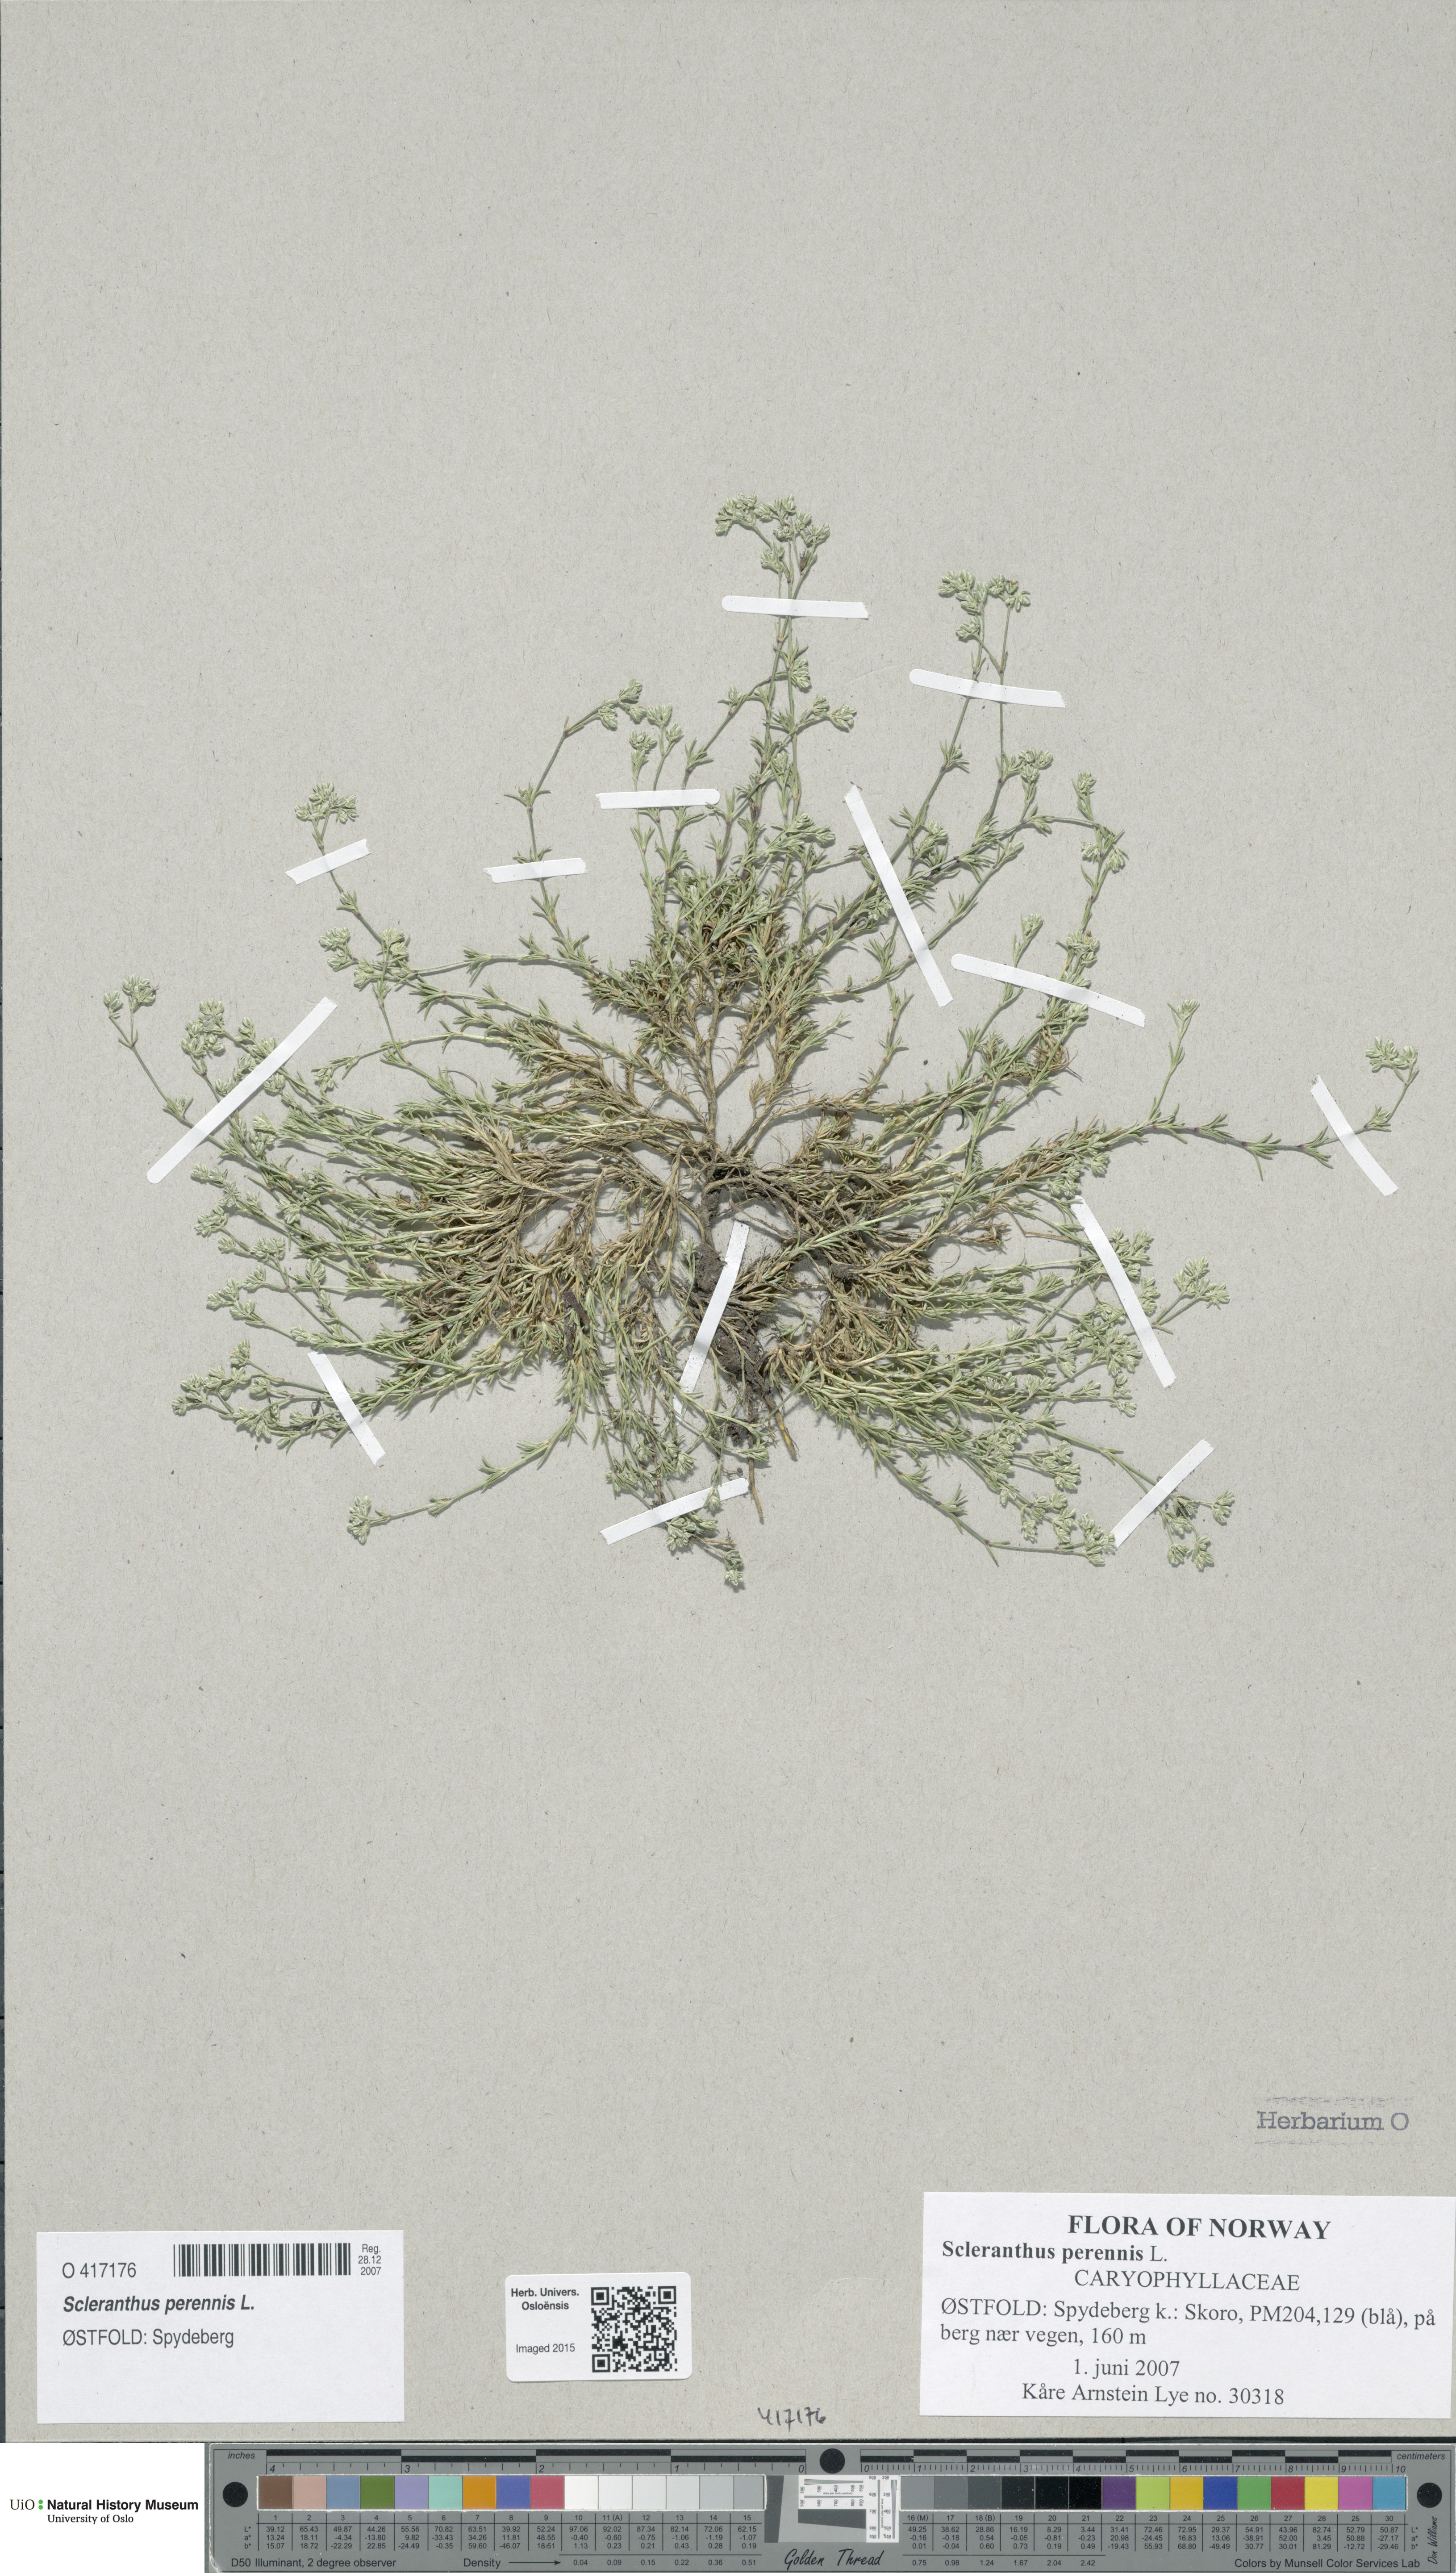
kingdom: Plantae
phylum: Tracheophyta
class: Magnoliopsida
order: Caryophyllales
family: Caryophyllaceae
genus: Scleranthus
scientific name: Scleranthus perennis
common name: Perennial knawel
